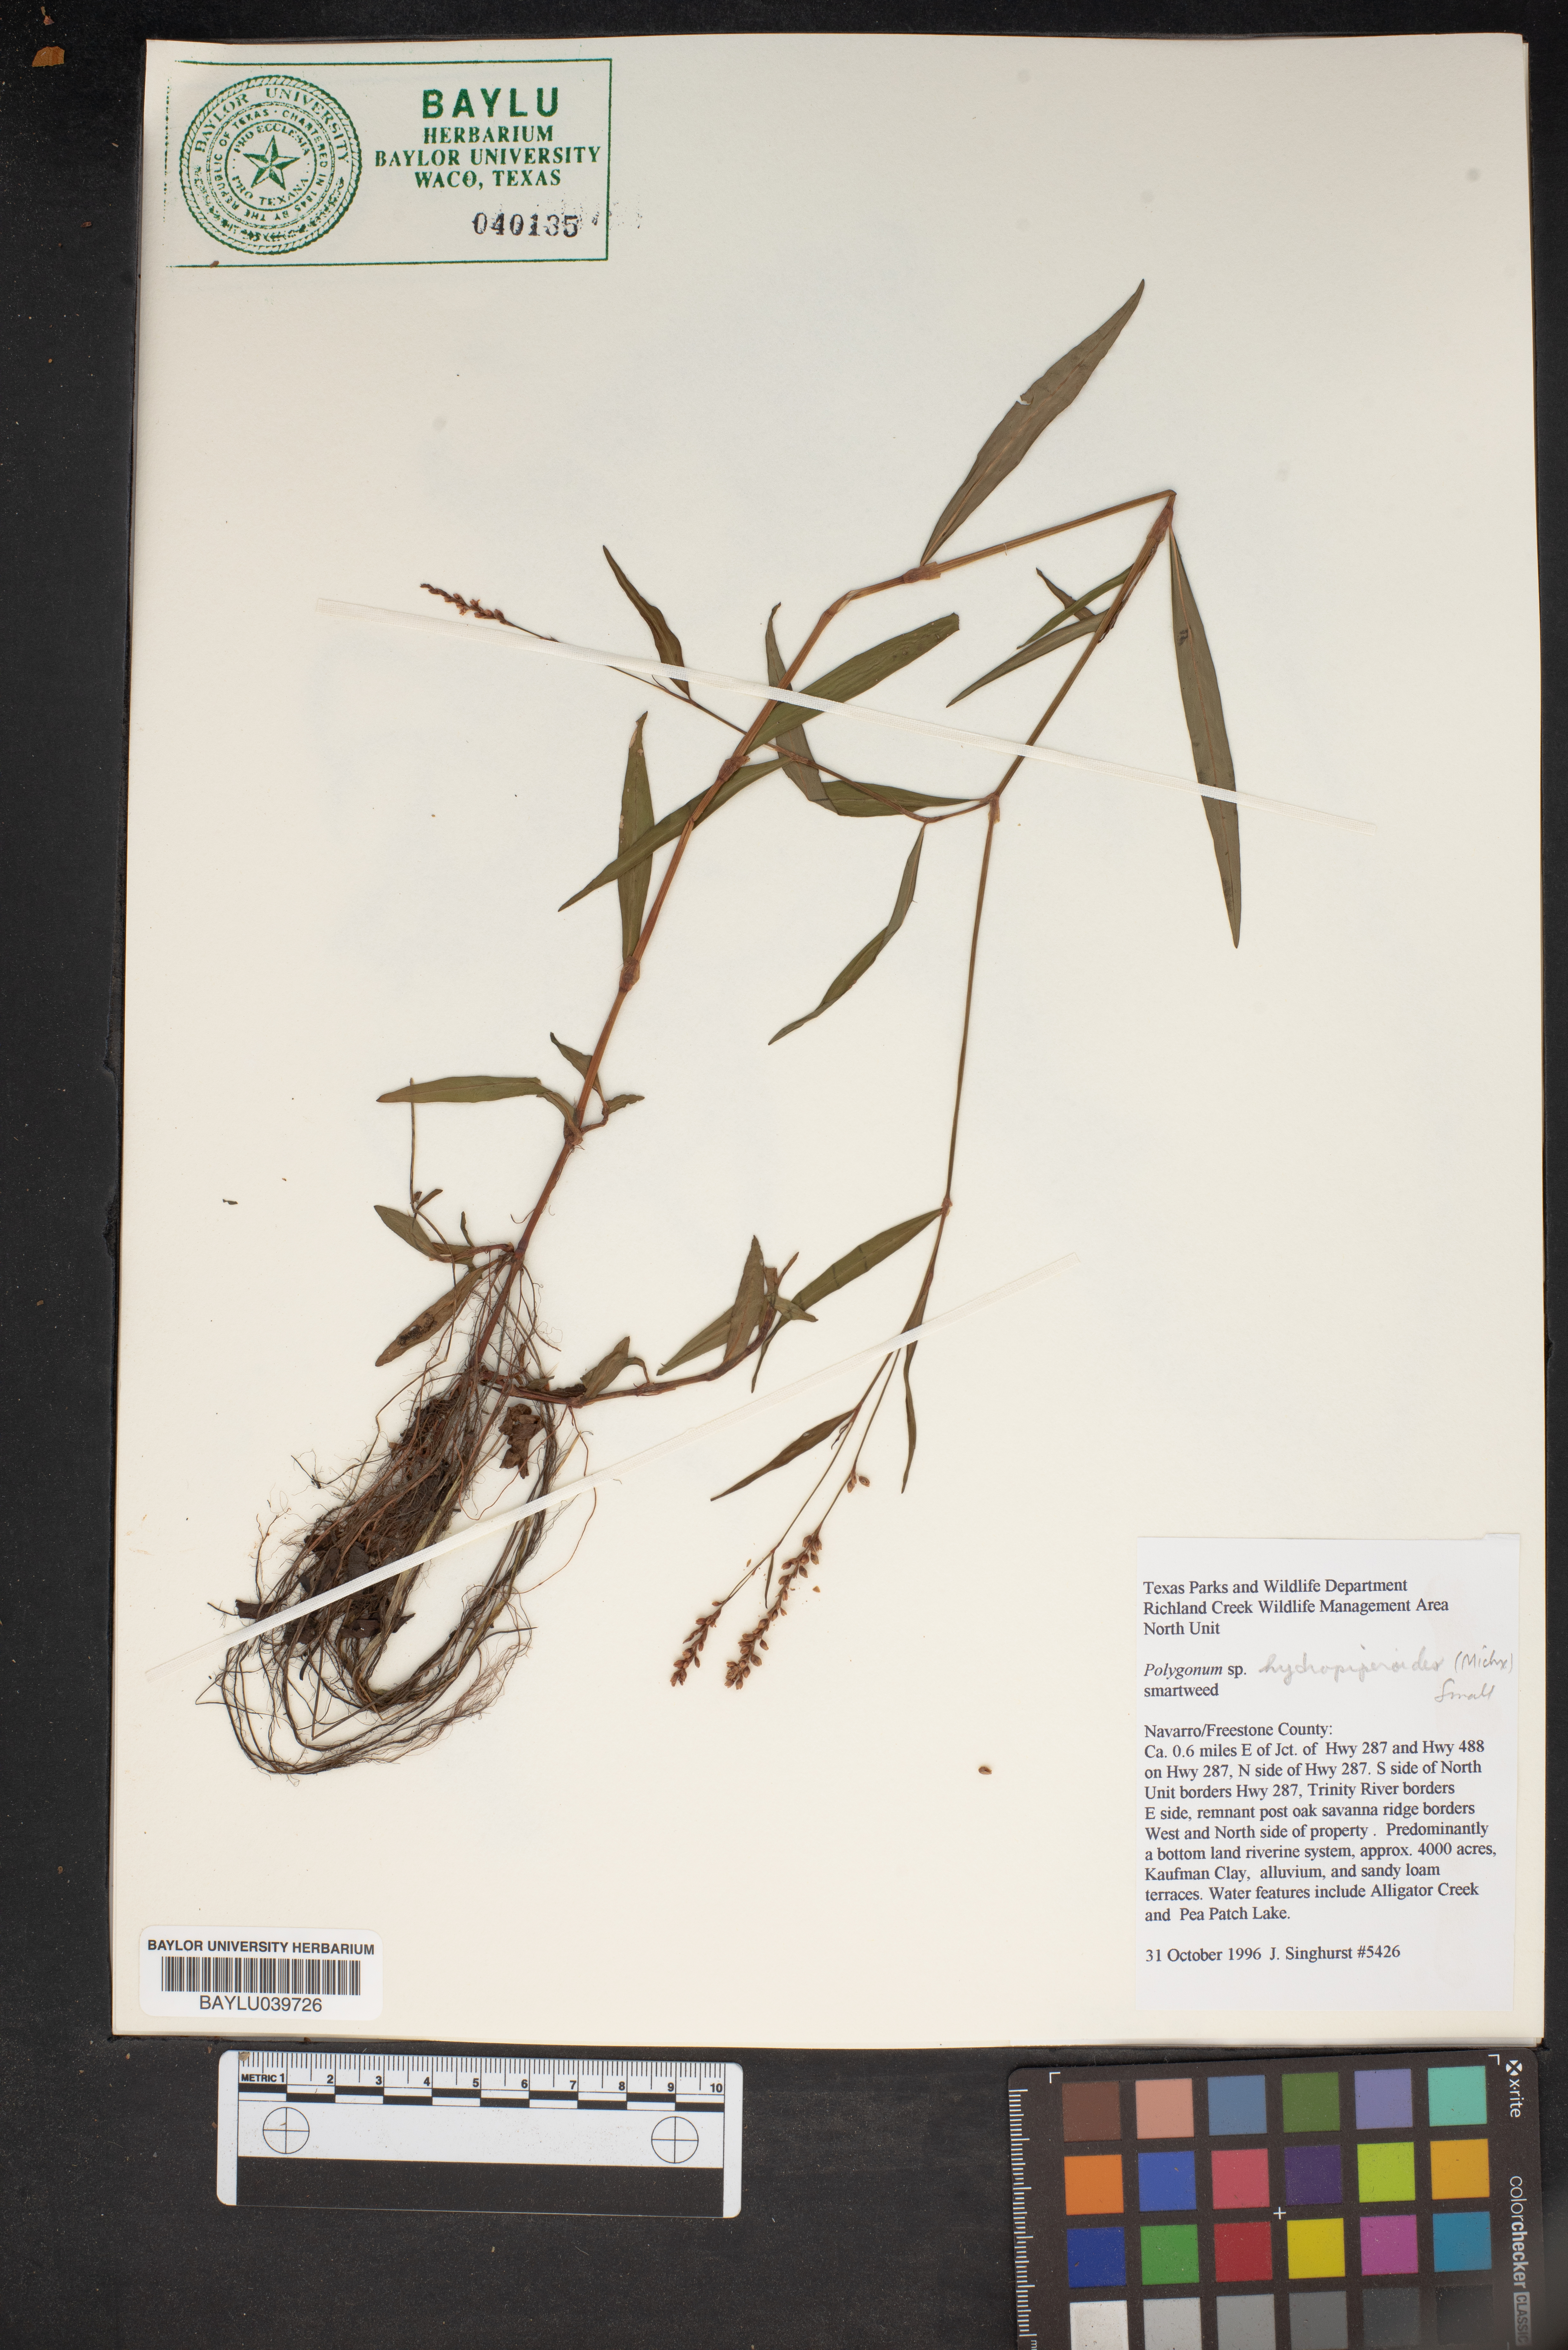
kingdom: Plantae
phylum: Tracheophyta
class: Magnoliopsida
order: Caryophyllales
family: Polygonaceae
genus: Persicaria
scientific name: Persicaria hydropiperoides
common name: Swamp smartweed
